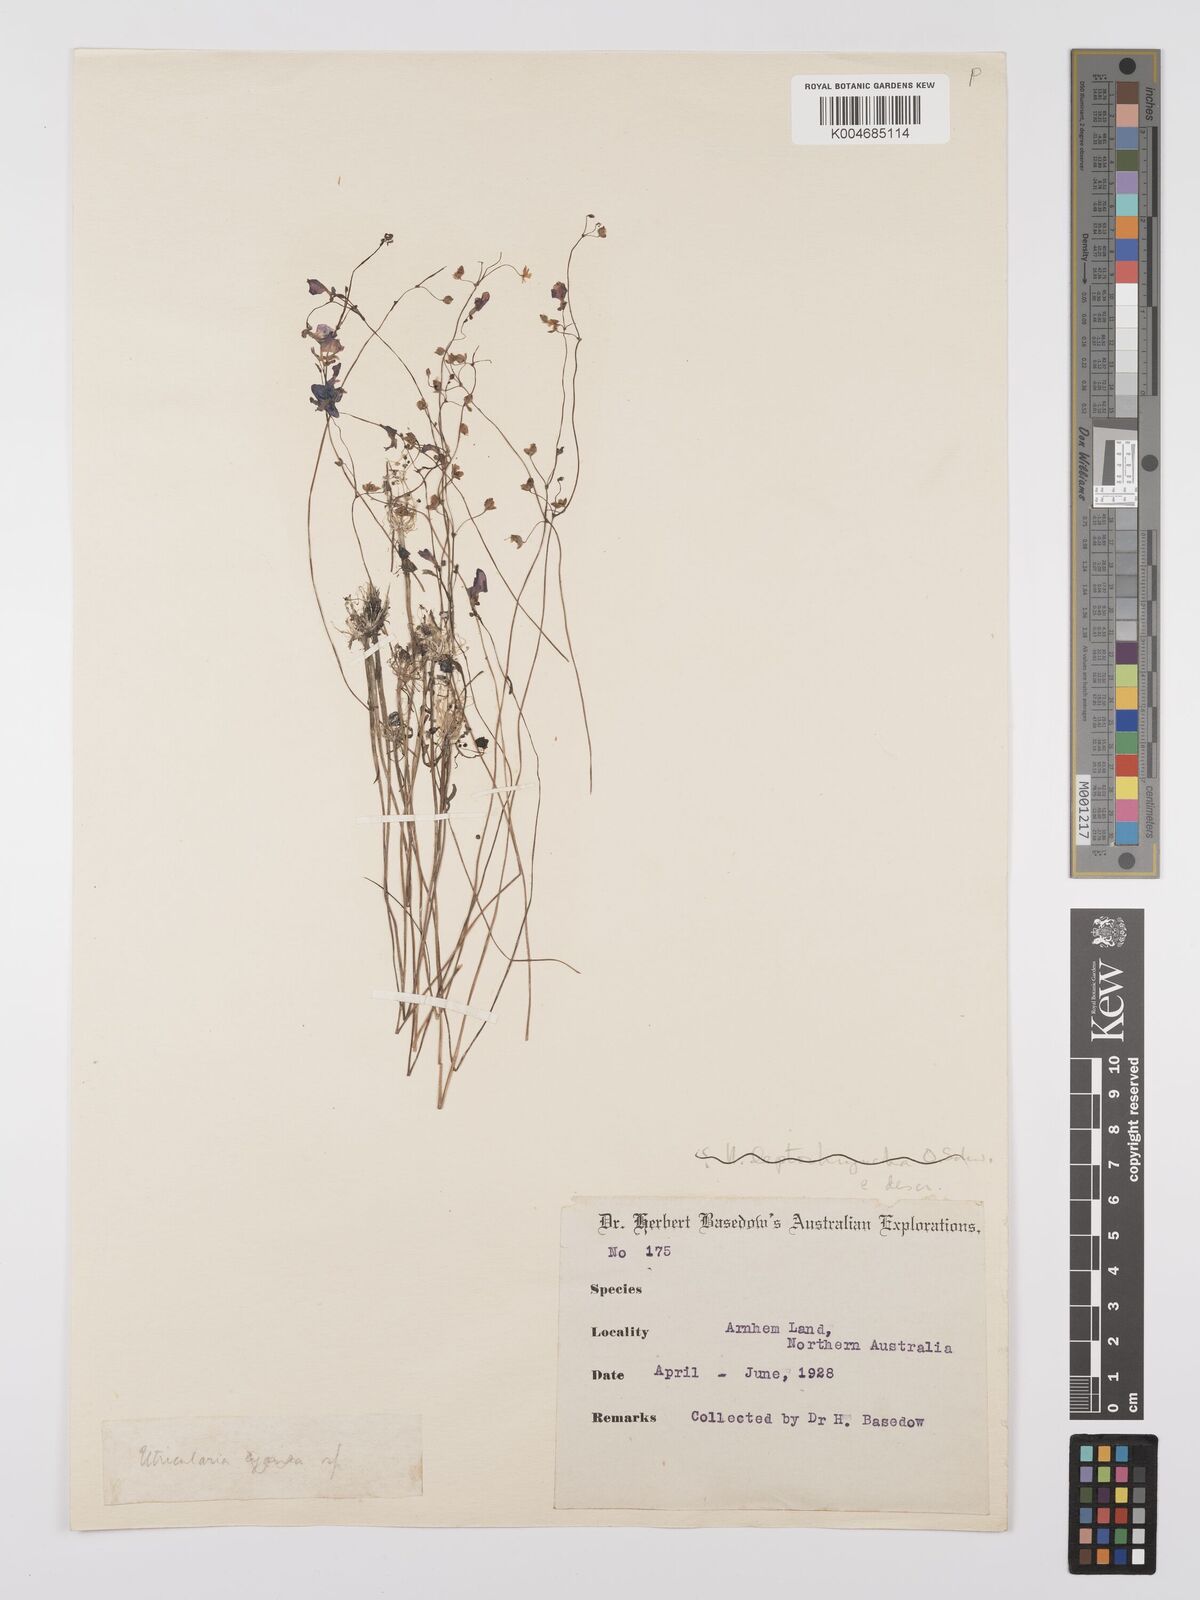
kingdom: Plantae
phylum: Tracheophyta
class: Magnoliopsida
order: Lamiales
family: Lentibulariaceae
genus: Utricularia
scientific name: Utricularia arnhemica
